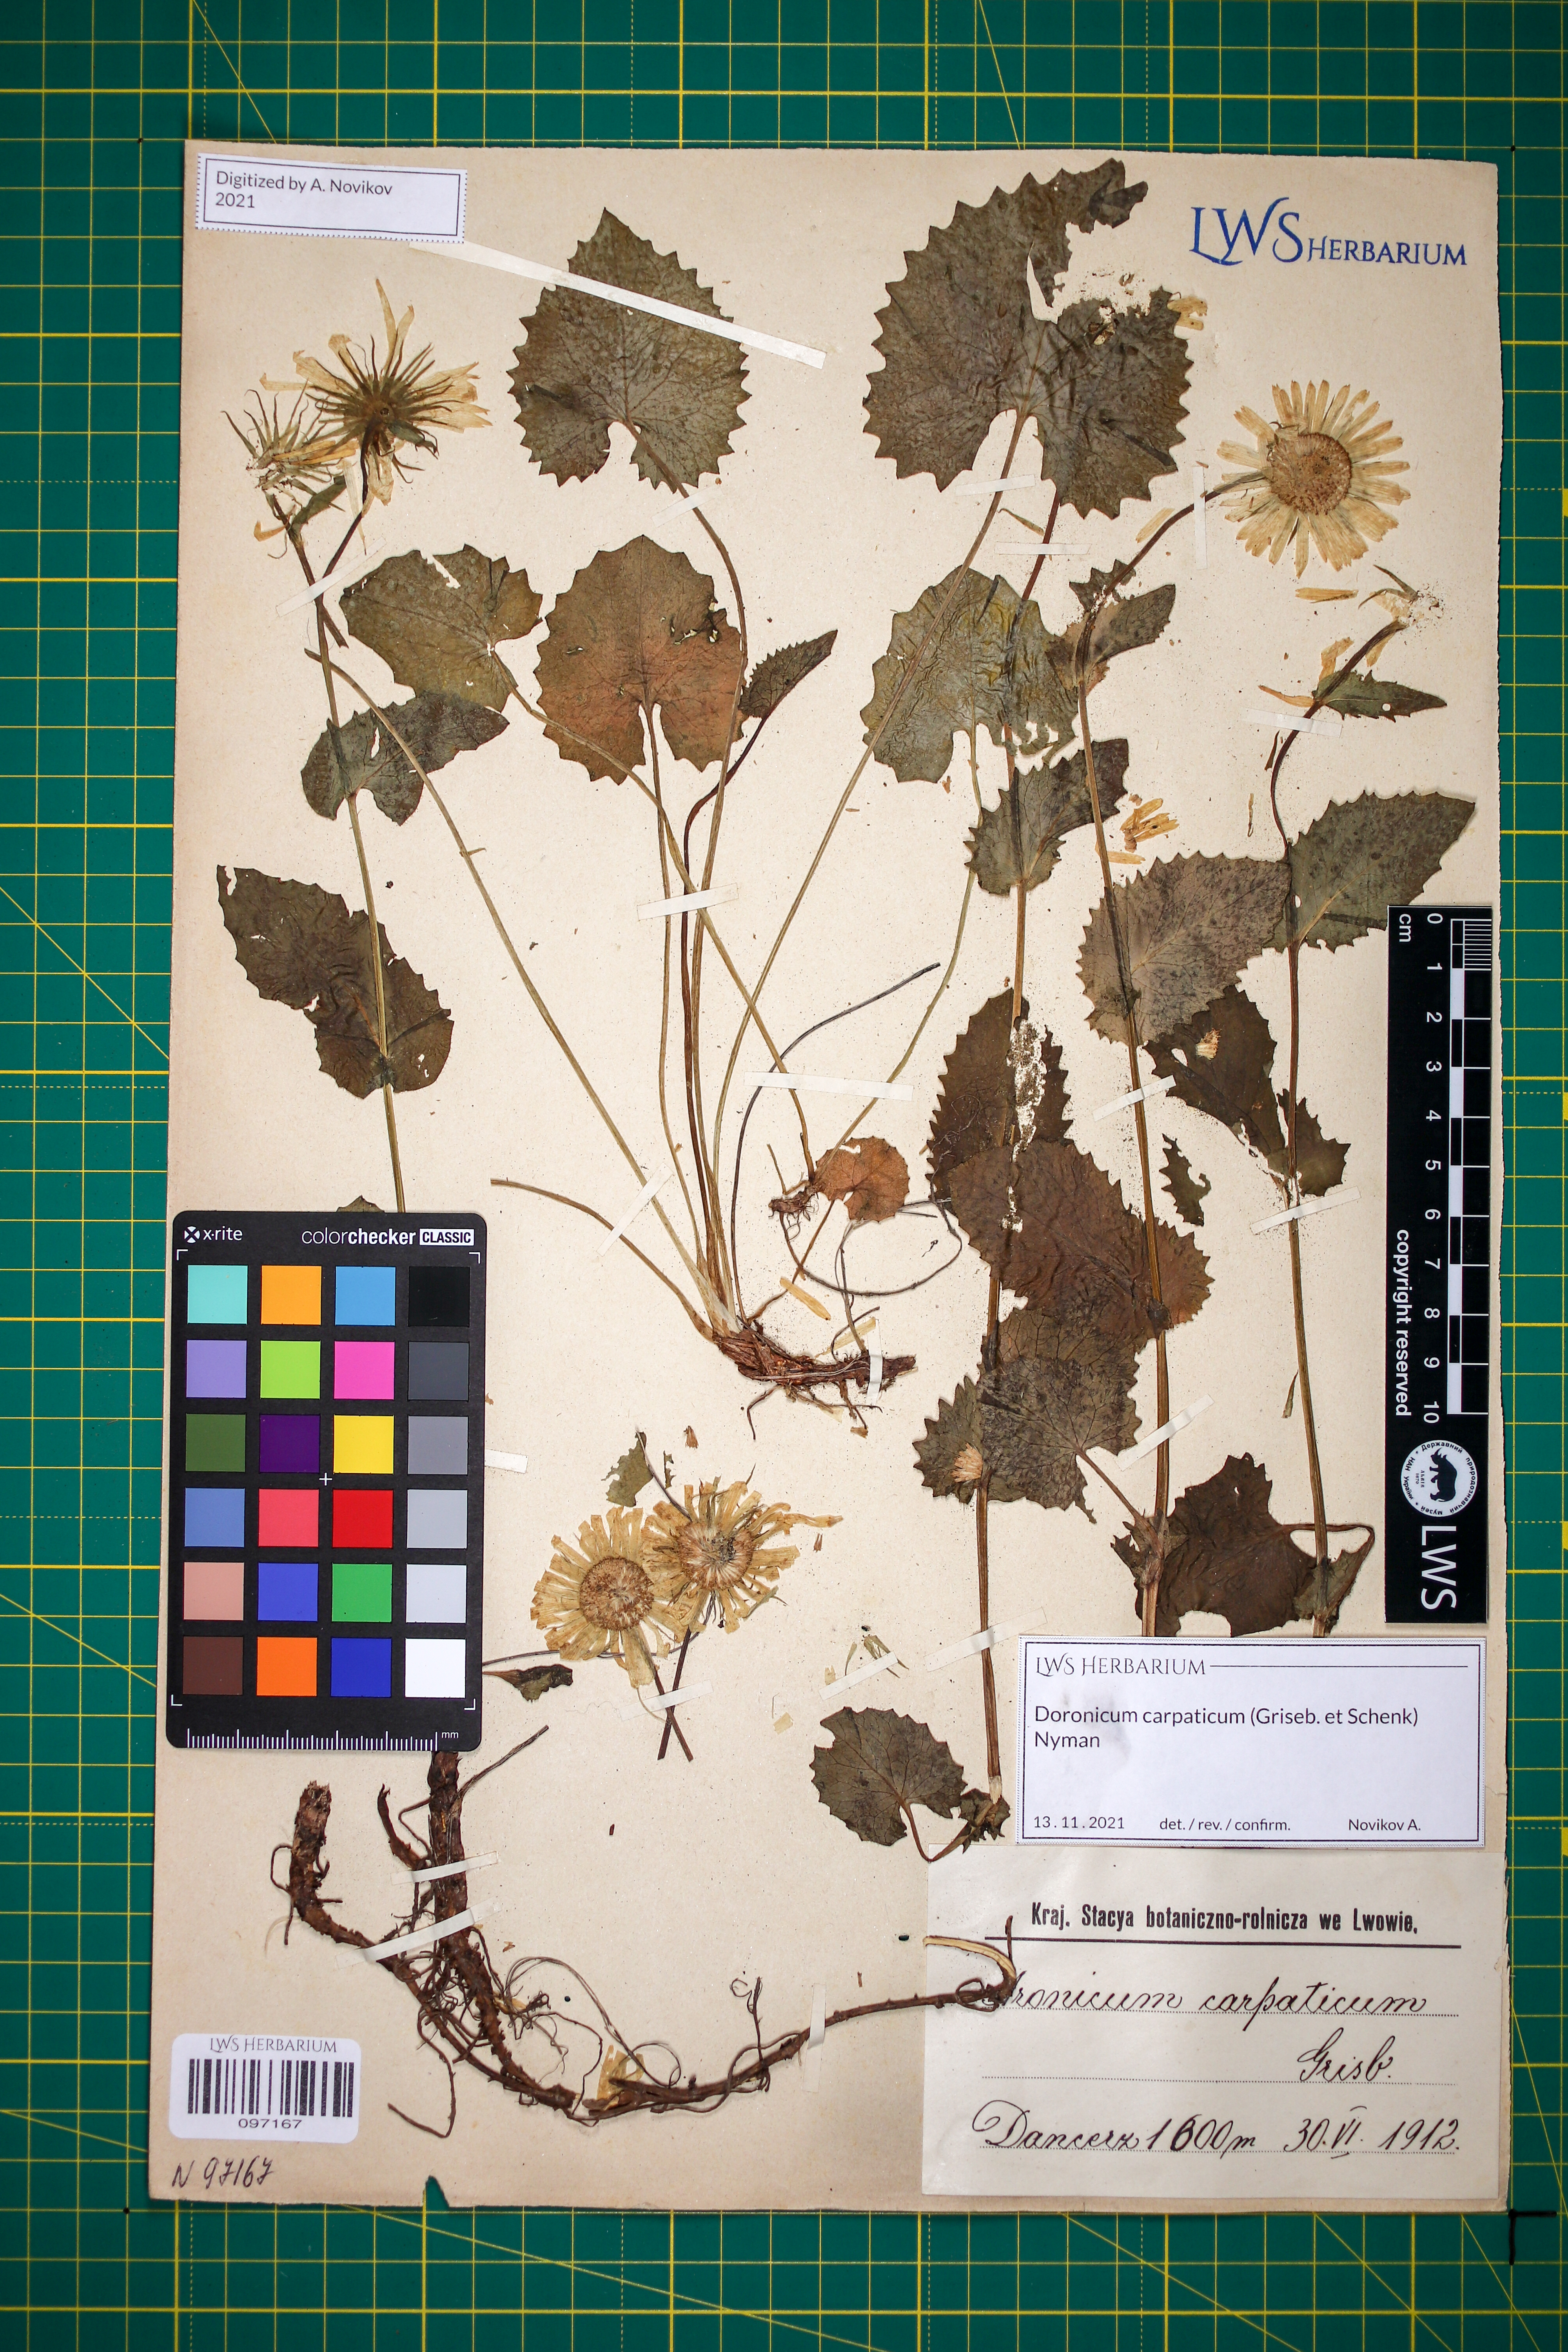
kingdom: Plantae
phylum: Tracheophyta
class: Magnoliopsida
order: Asterales
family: Asteraceae
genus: Doronicum
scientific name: Doronicum carpaticum
